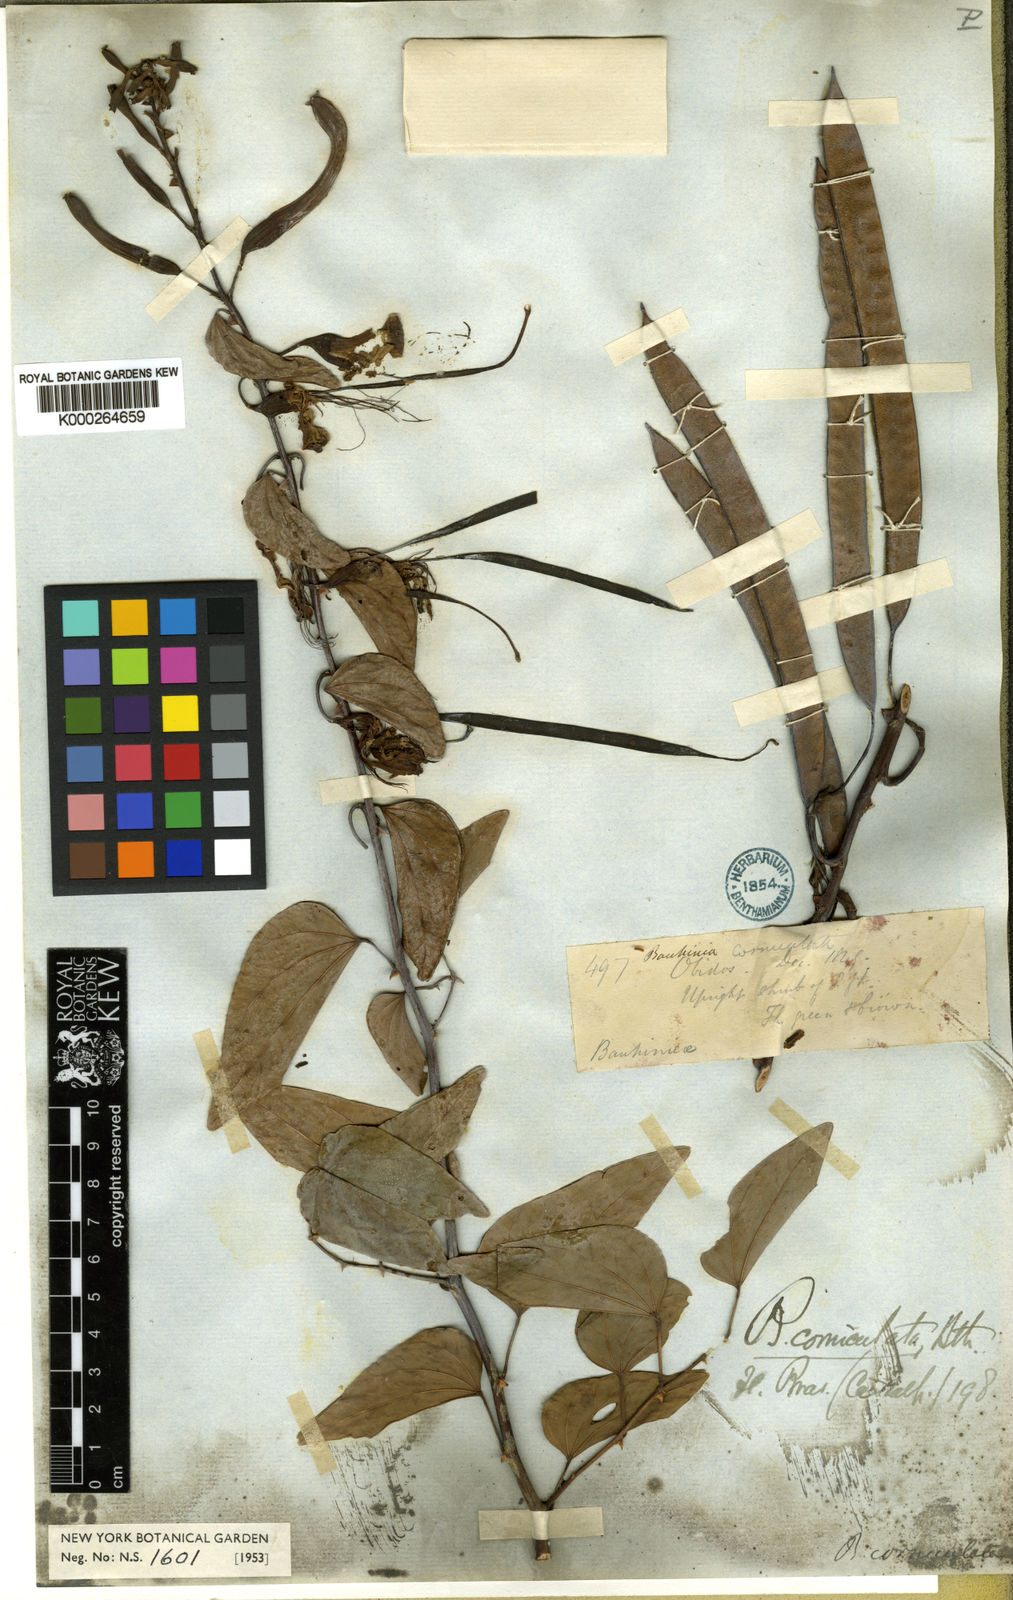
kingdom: Plantae
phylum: Tracheophyta
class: Magnoliopsida
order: Fabales
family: Fabaceae
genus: Bauhinia
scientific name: Bauhinia corniculata
